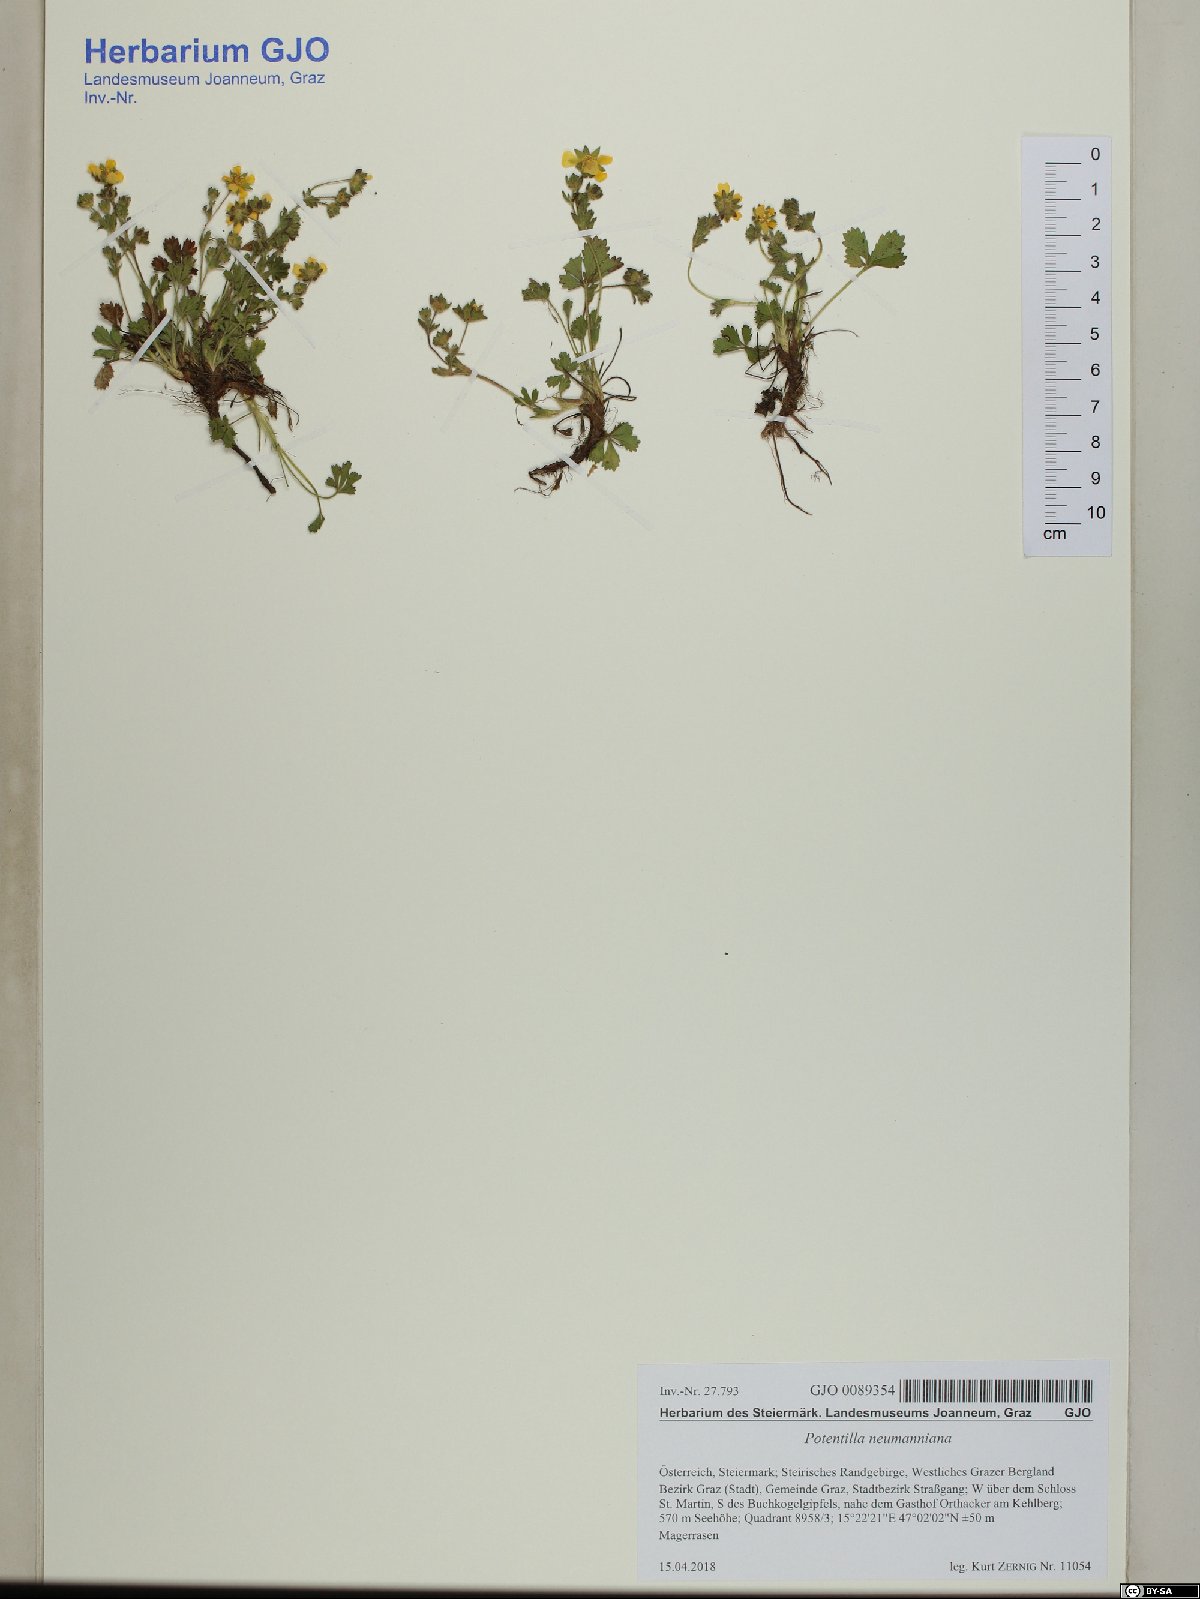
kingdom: Plantae
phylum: Tracheophyta
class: Magnoliopsida
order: Rosales
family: Rosaceae
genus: Potentilla
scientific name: Potentilla verna
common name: Spring cinquefoil
